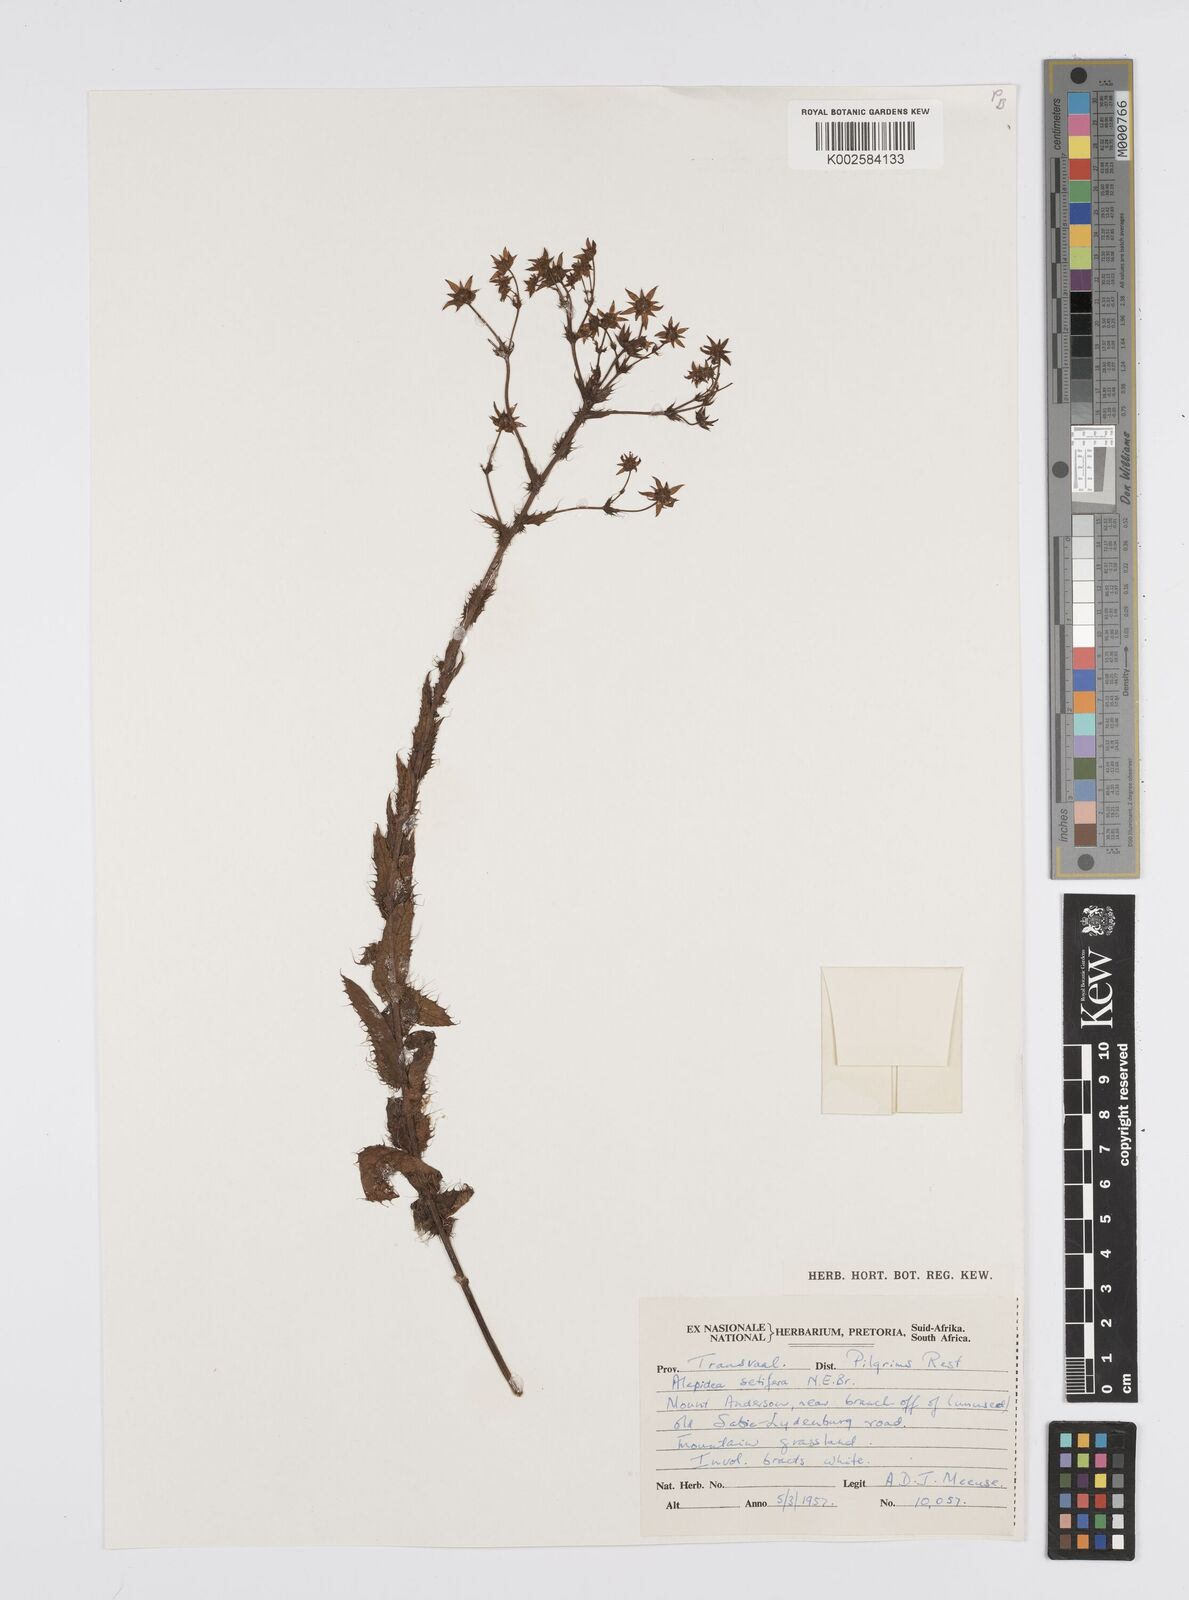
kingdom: Plantae
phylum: Tracheophyta
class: Magnoliopsida
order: Apiales
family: Apiaceae
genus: Alepidea
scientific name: Alepidea setifera
